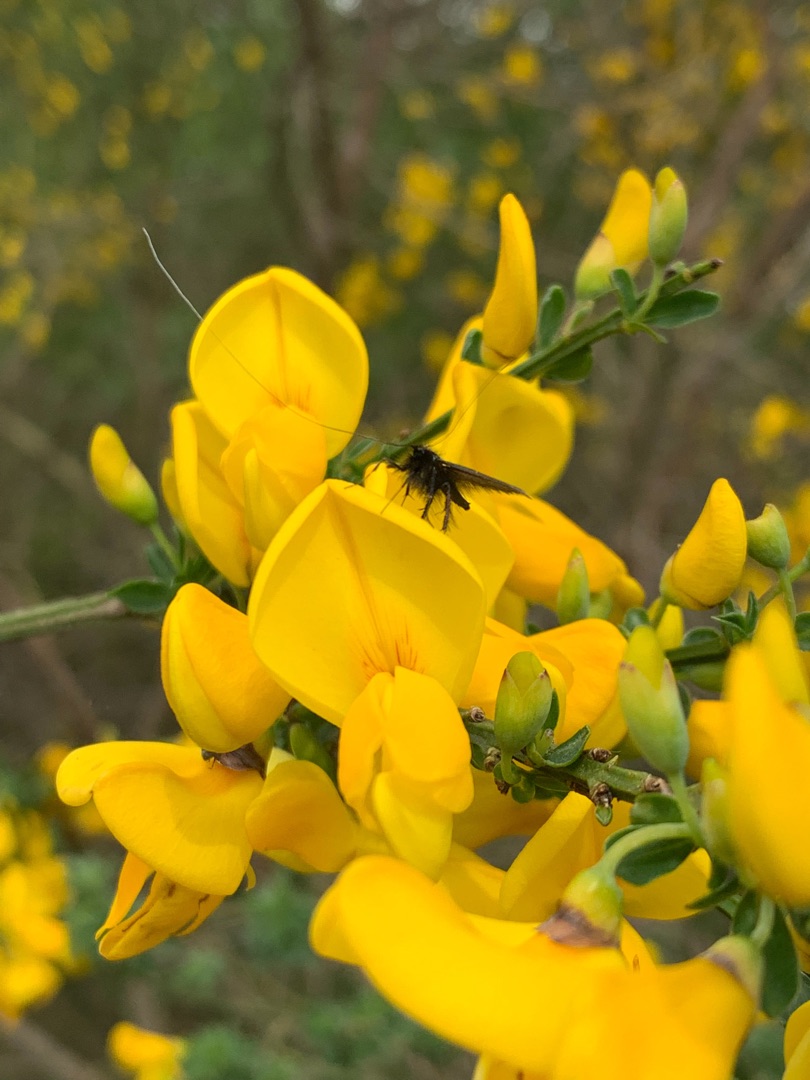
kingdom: Animalia
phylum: Arthropoda
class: Insecta
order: Lepidoptera
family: Adelidae
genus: Adela
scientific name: Adela viridella
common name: Egelanghornsmøl
